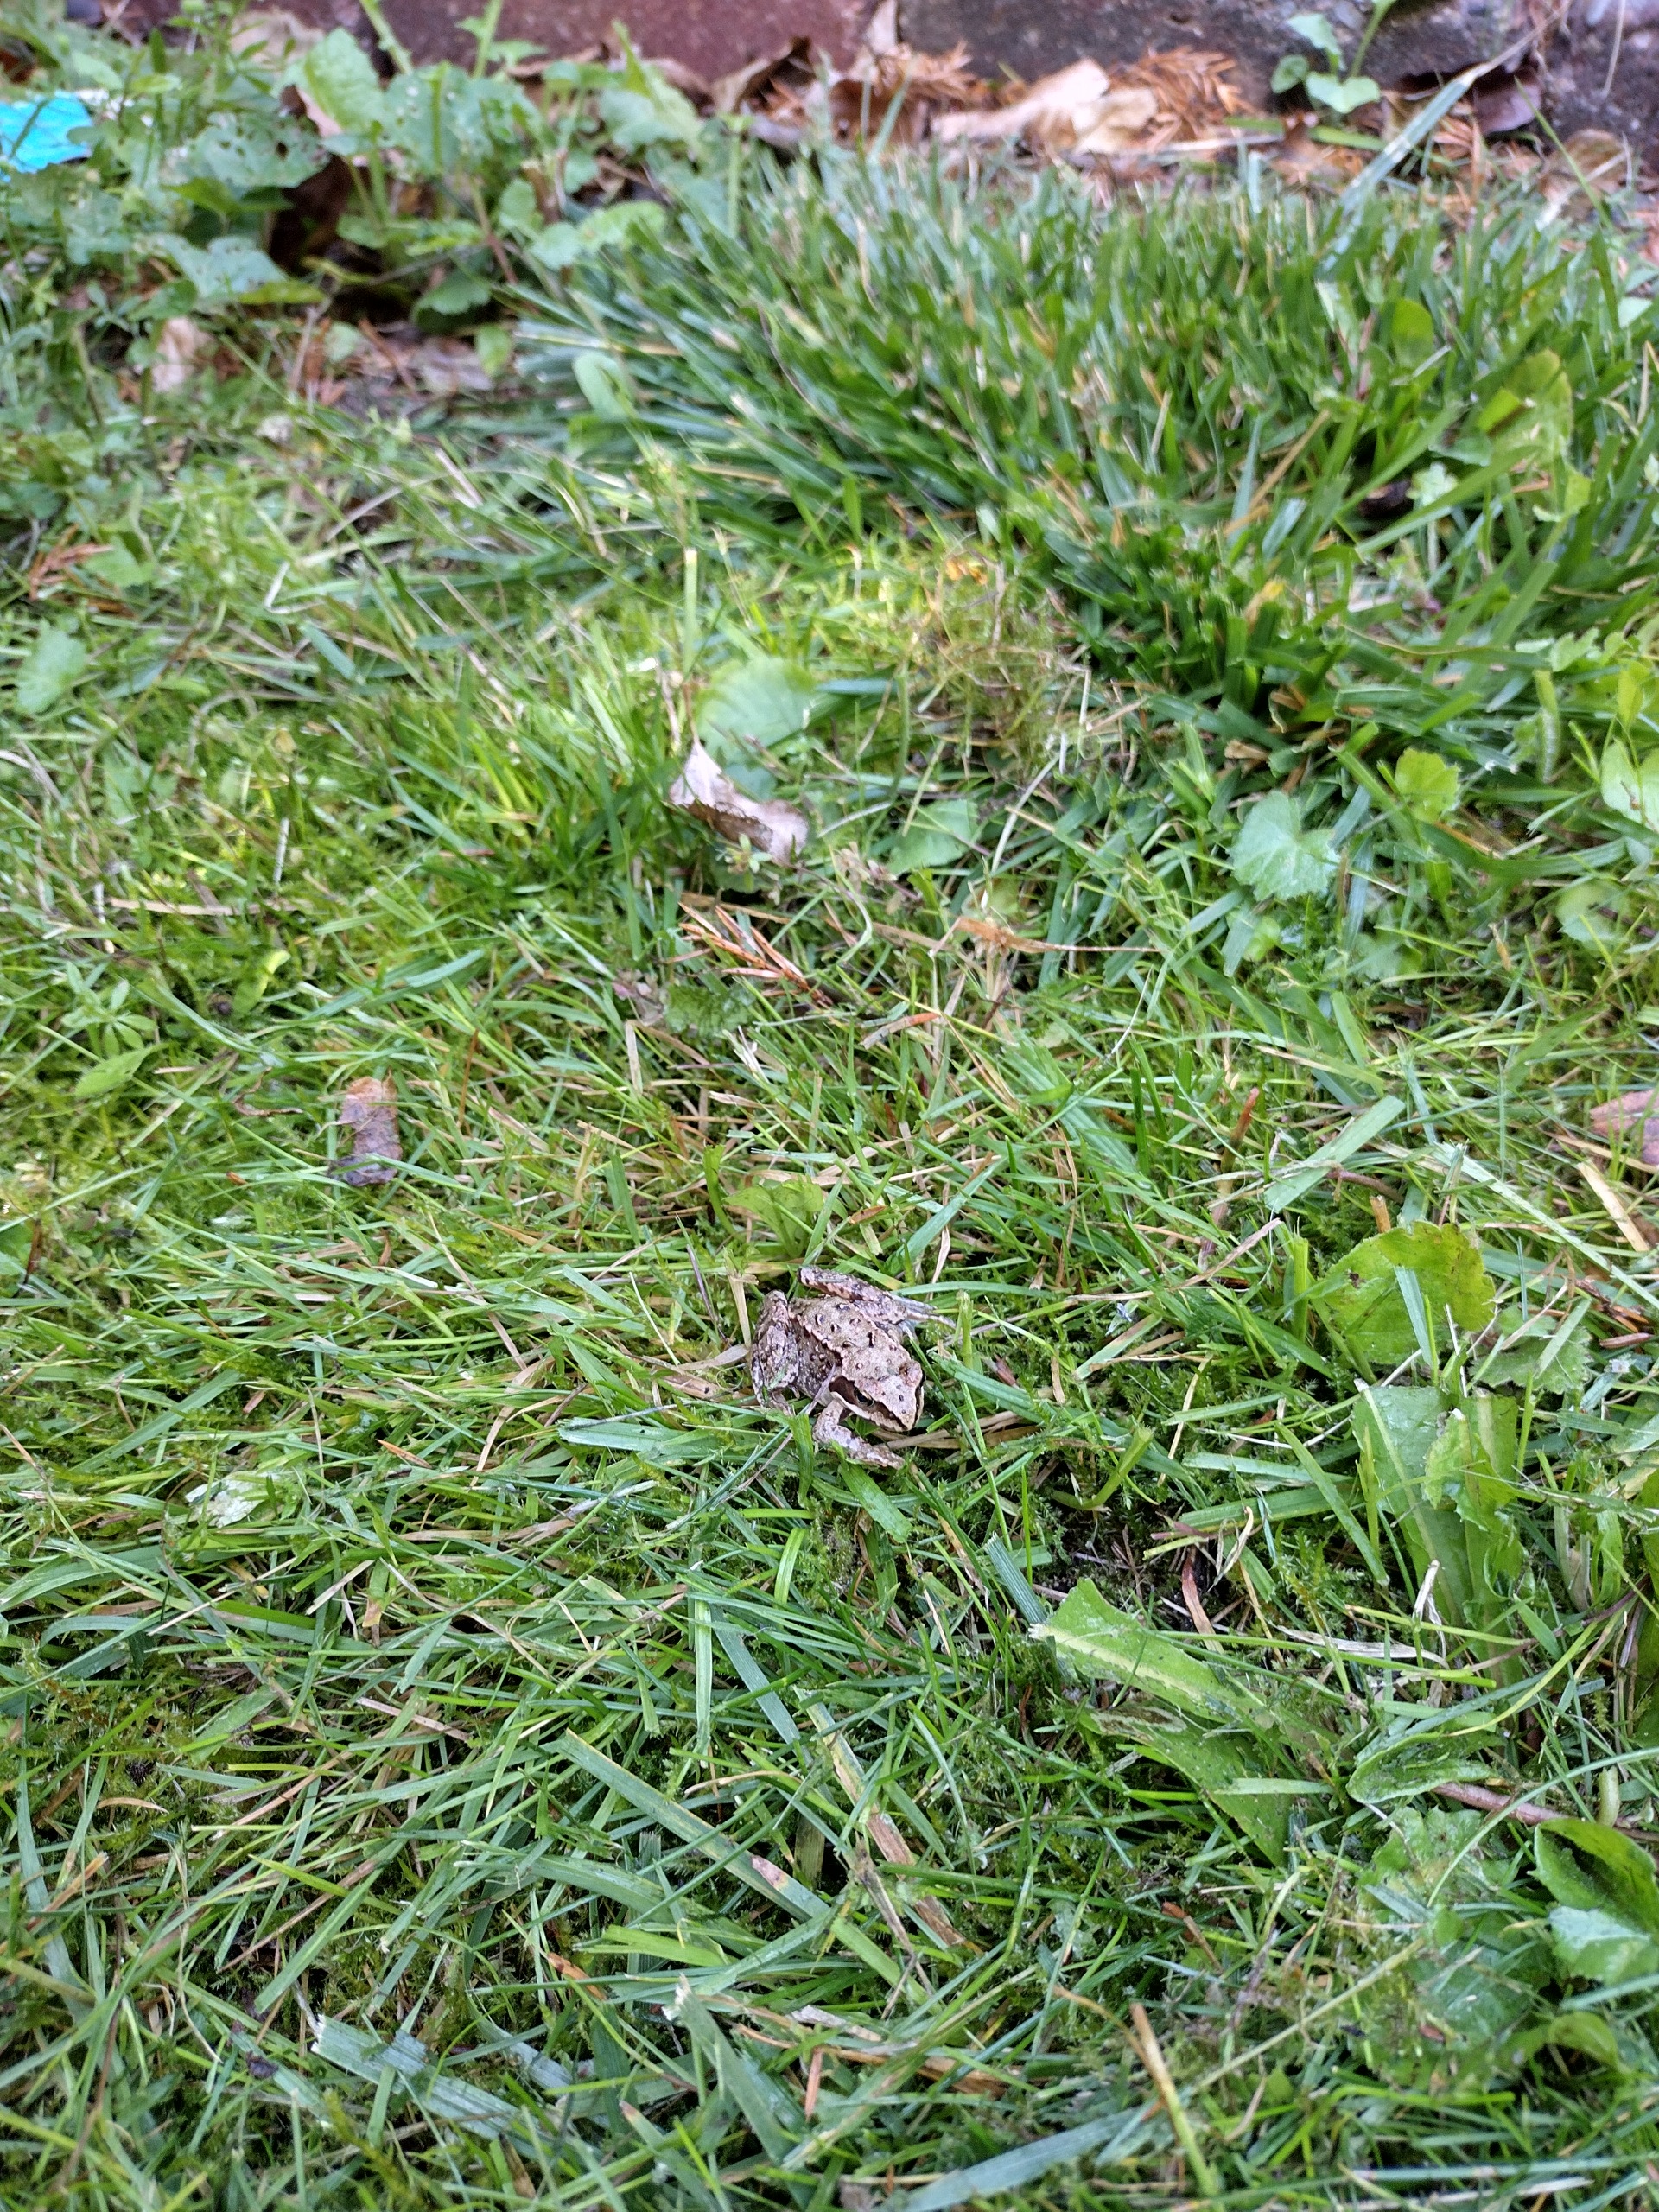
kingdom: Animalia
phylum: Chordata
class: Amphibia
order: Anura
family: Ranidae
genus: Rana
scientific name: Rana temporaria
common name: Butsnudet frø
